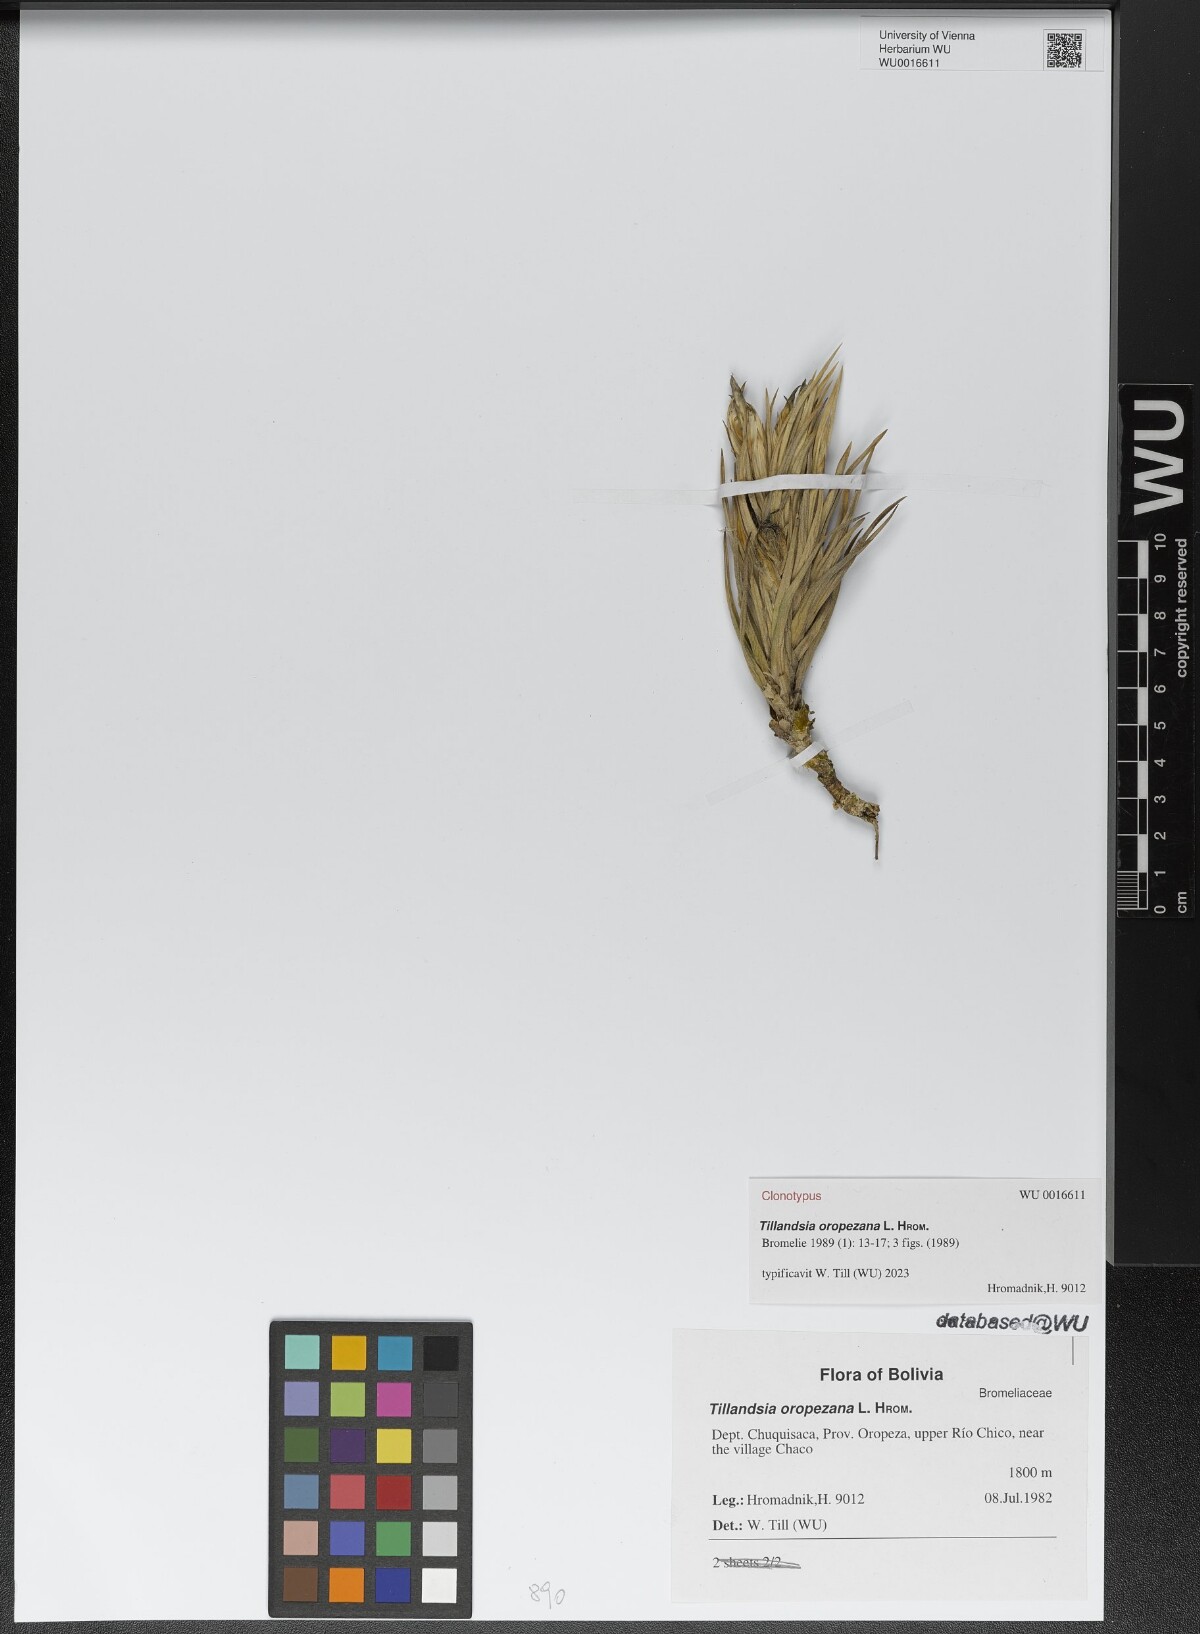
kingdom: Plantae
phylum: Tracheophyta
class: Liliopsida
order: Poales
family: Bromeliaceae
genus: Tillandsia
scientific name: Tillandsia oropezana
